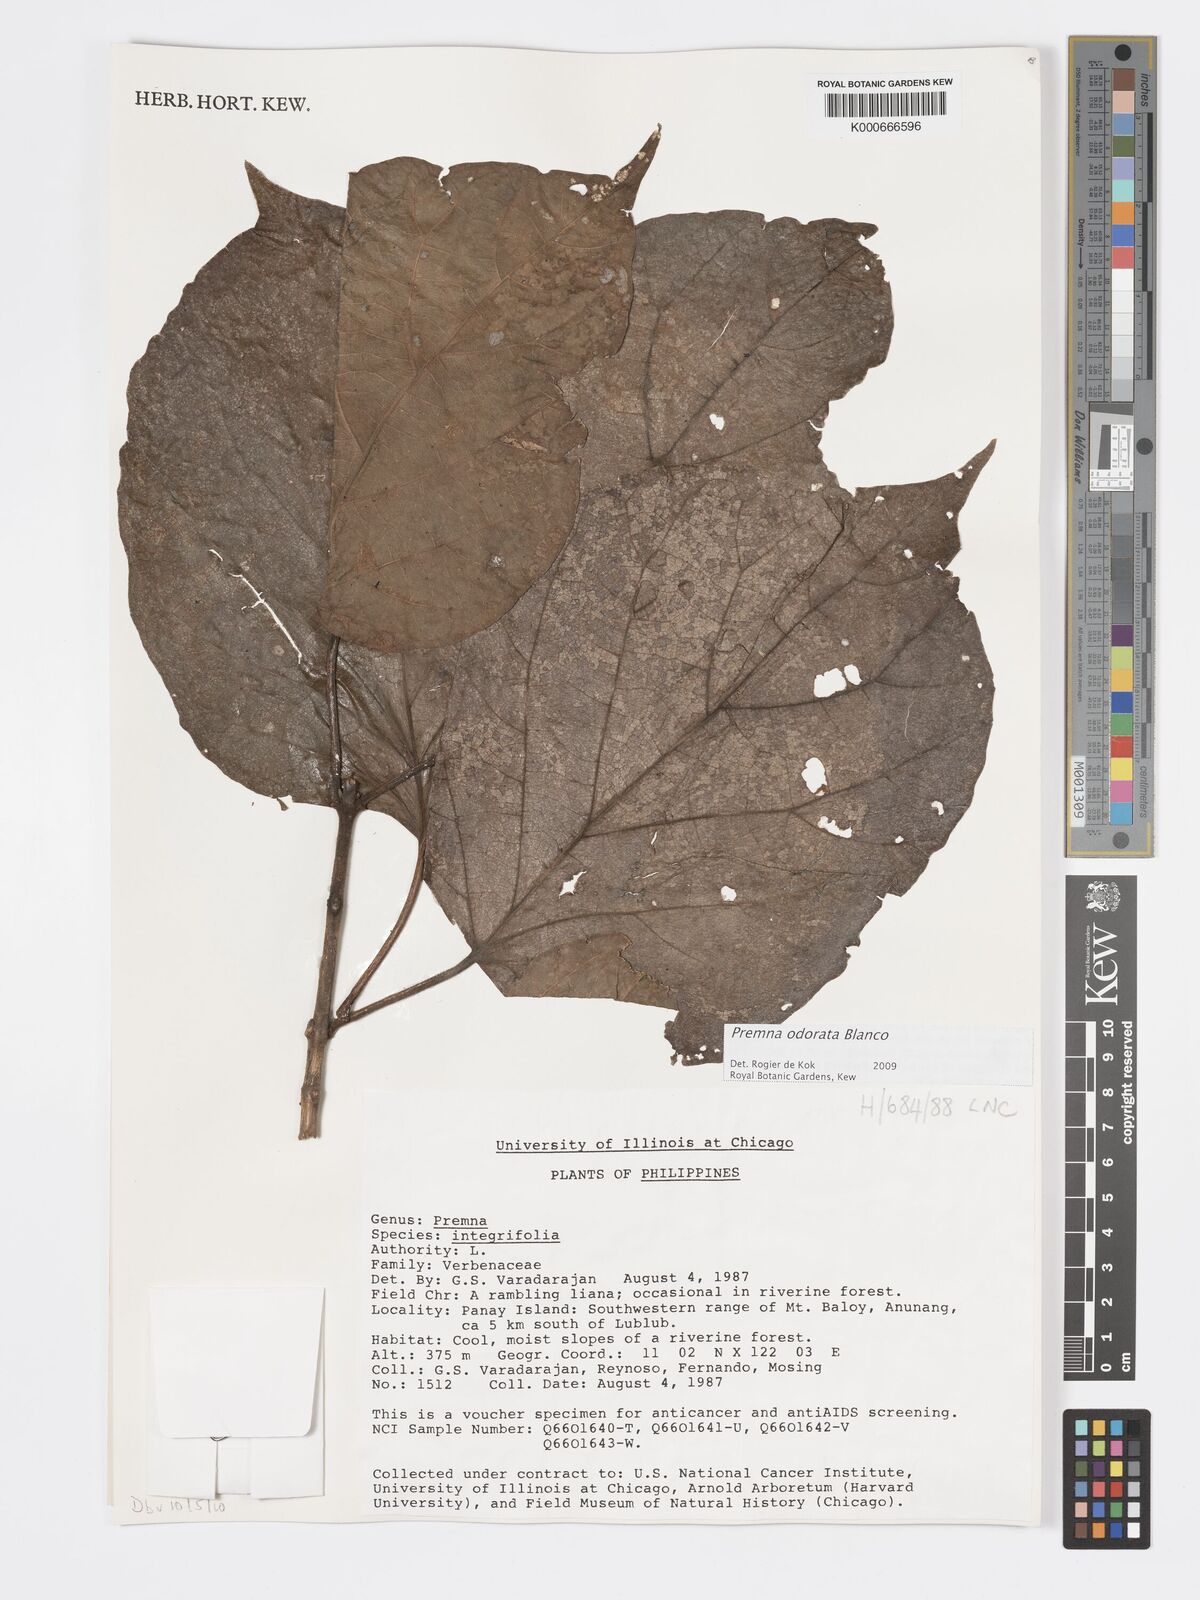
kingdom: Plantae
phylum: Tracheophyta
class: Magnoliopsida
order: Lamiales
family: Lamiaceae
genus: Premna
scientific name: Premna odorata
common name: Fragrant premna
